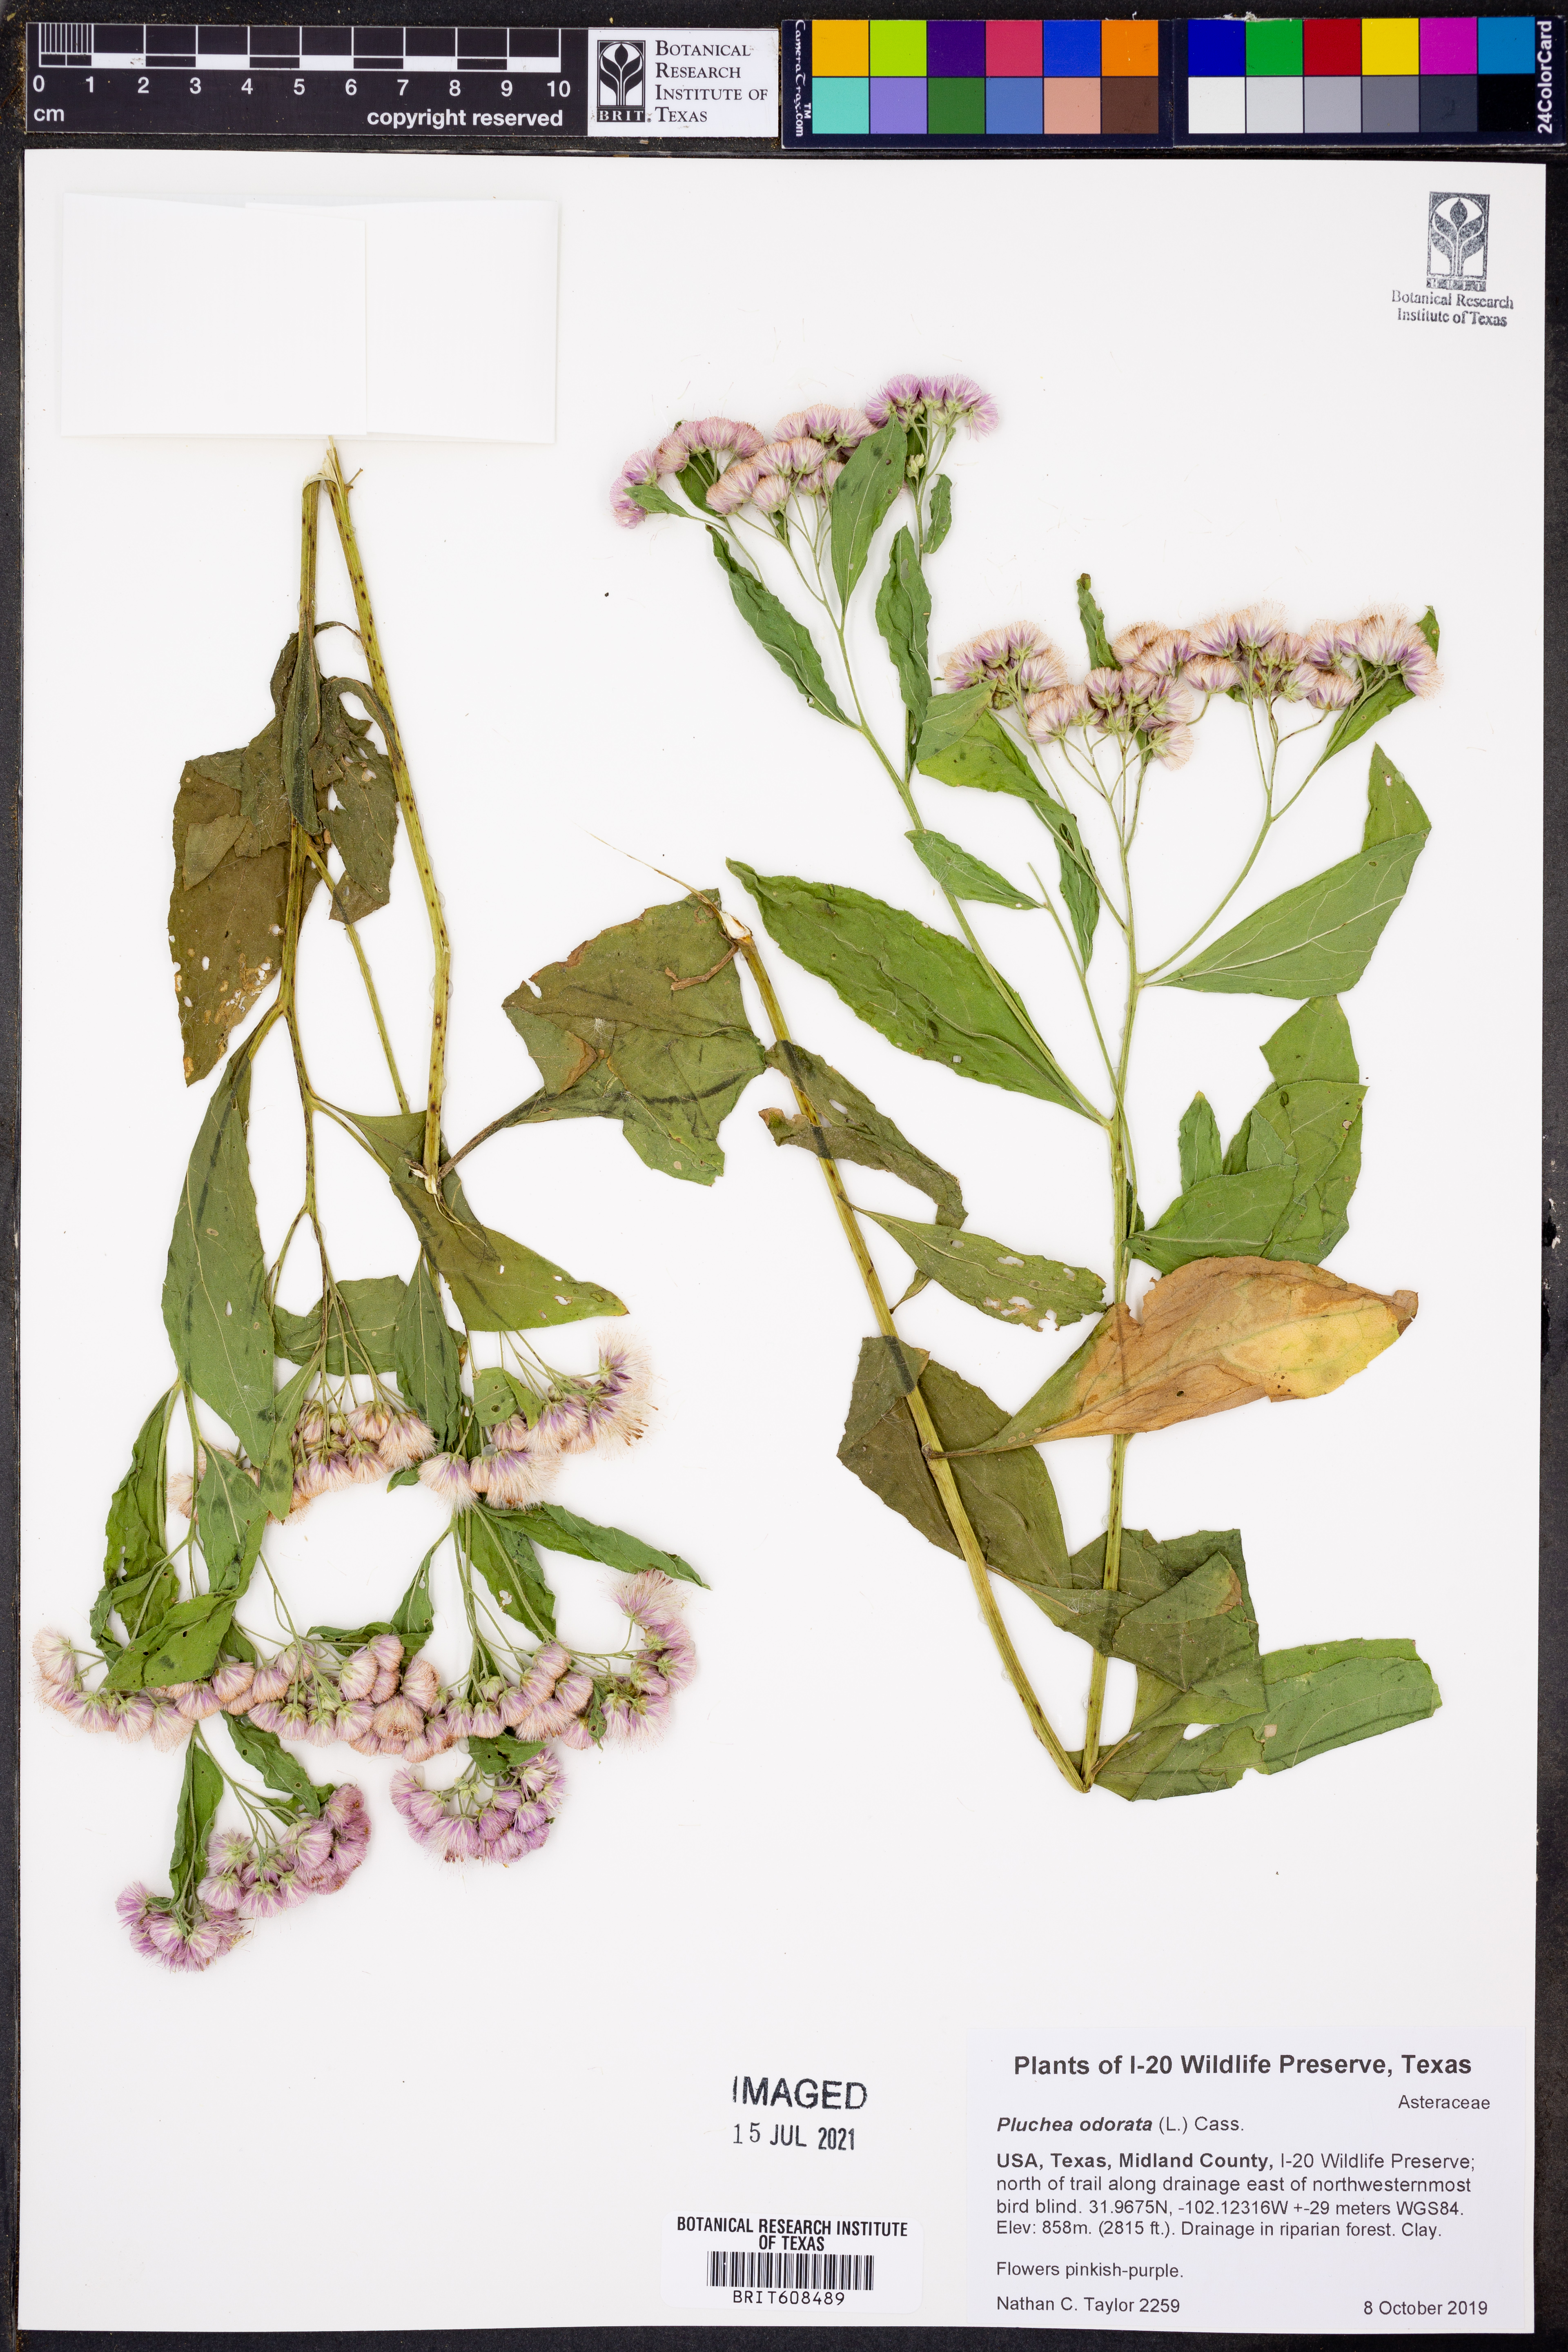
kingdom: Plantae
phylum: Tracheophyta
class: Magnoliopsida
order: Asterales
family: Asteraceae
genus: Pluchea
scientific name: Pluchea odorata
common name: Saltmarsh fleabane
